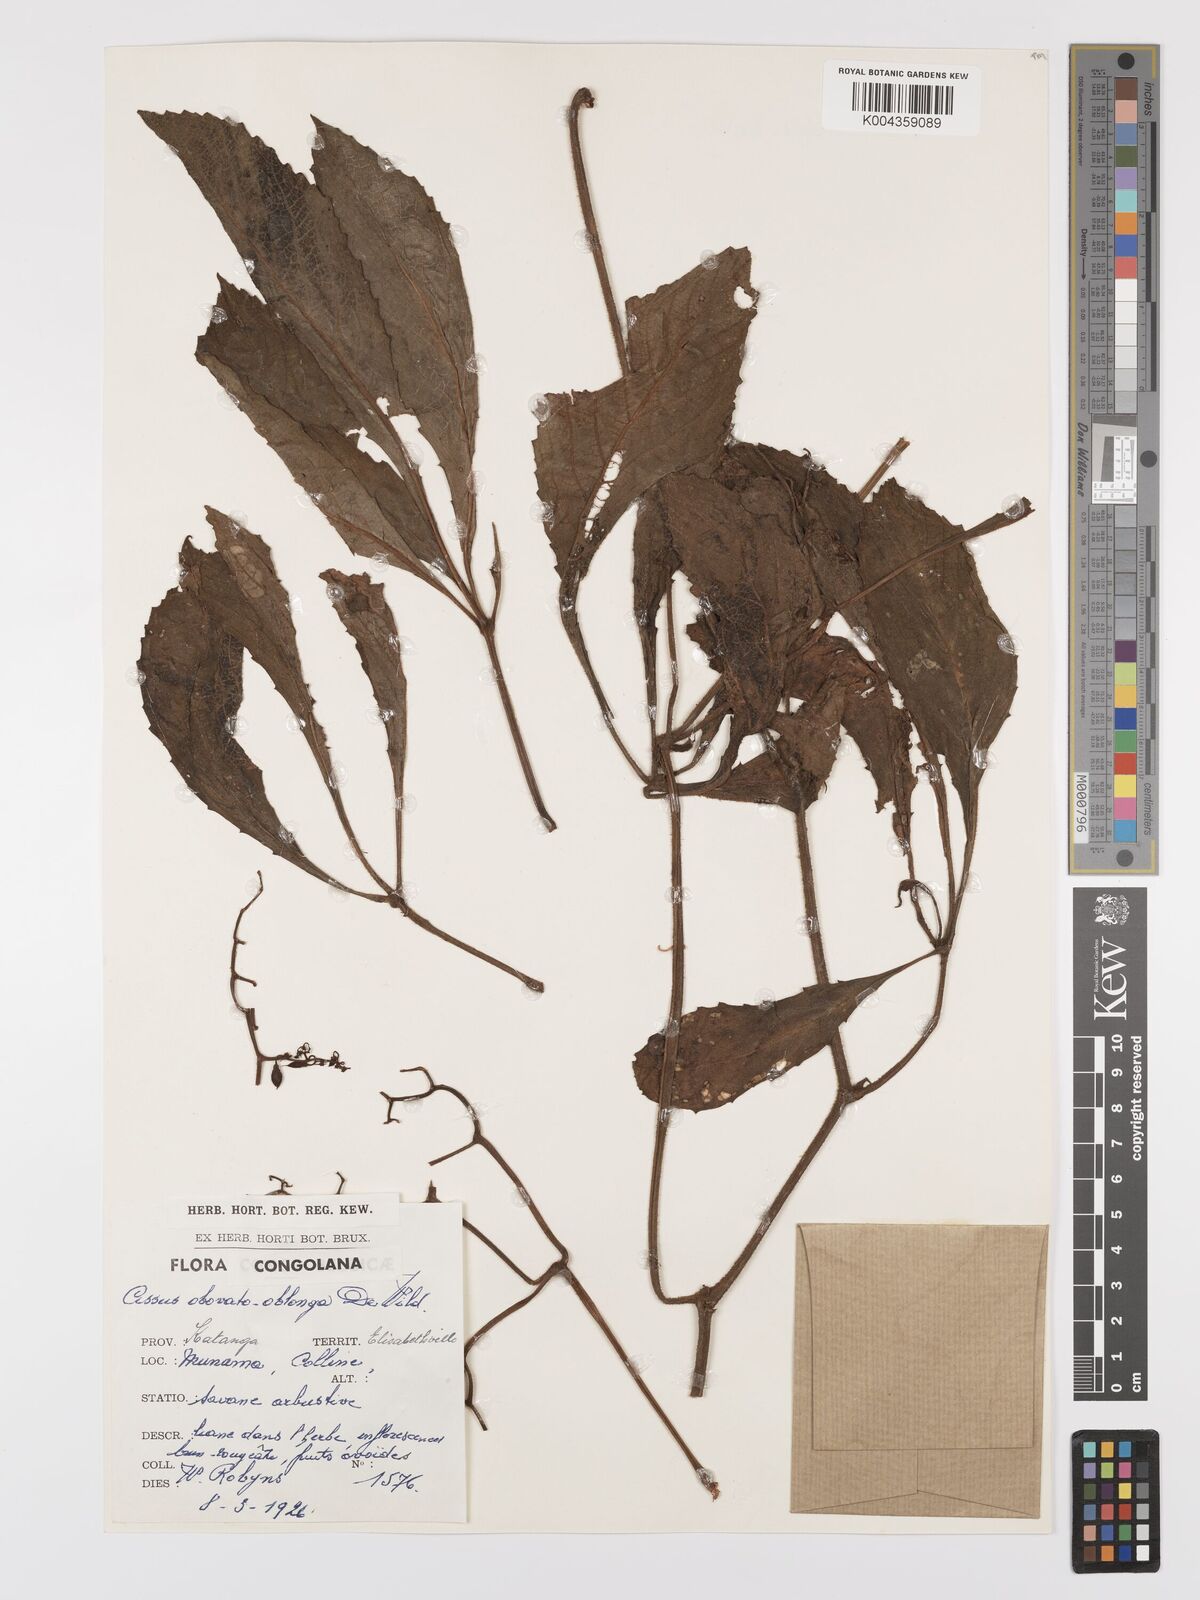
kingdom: Plantae
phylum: Tracheophyta
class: Magnoliopsida
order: Vitales
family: Vitaceae
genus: Cyphostemma
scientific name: Cyphostemma obovato-oblongum
